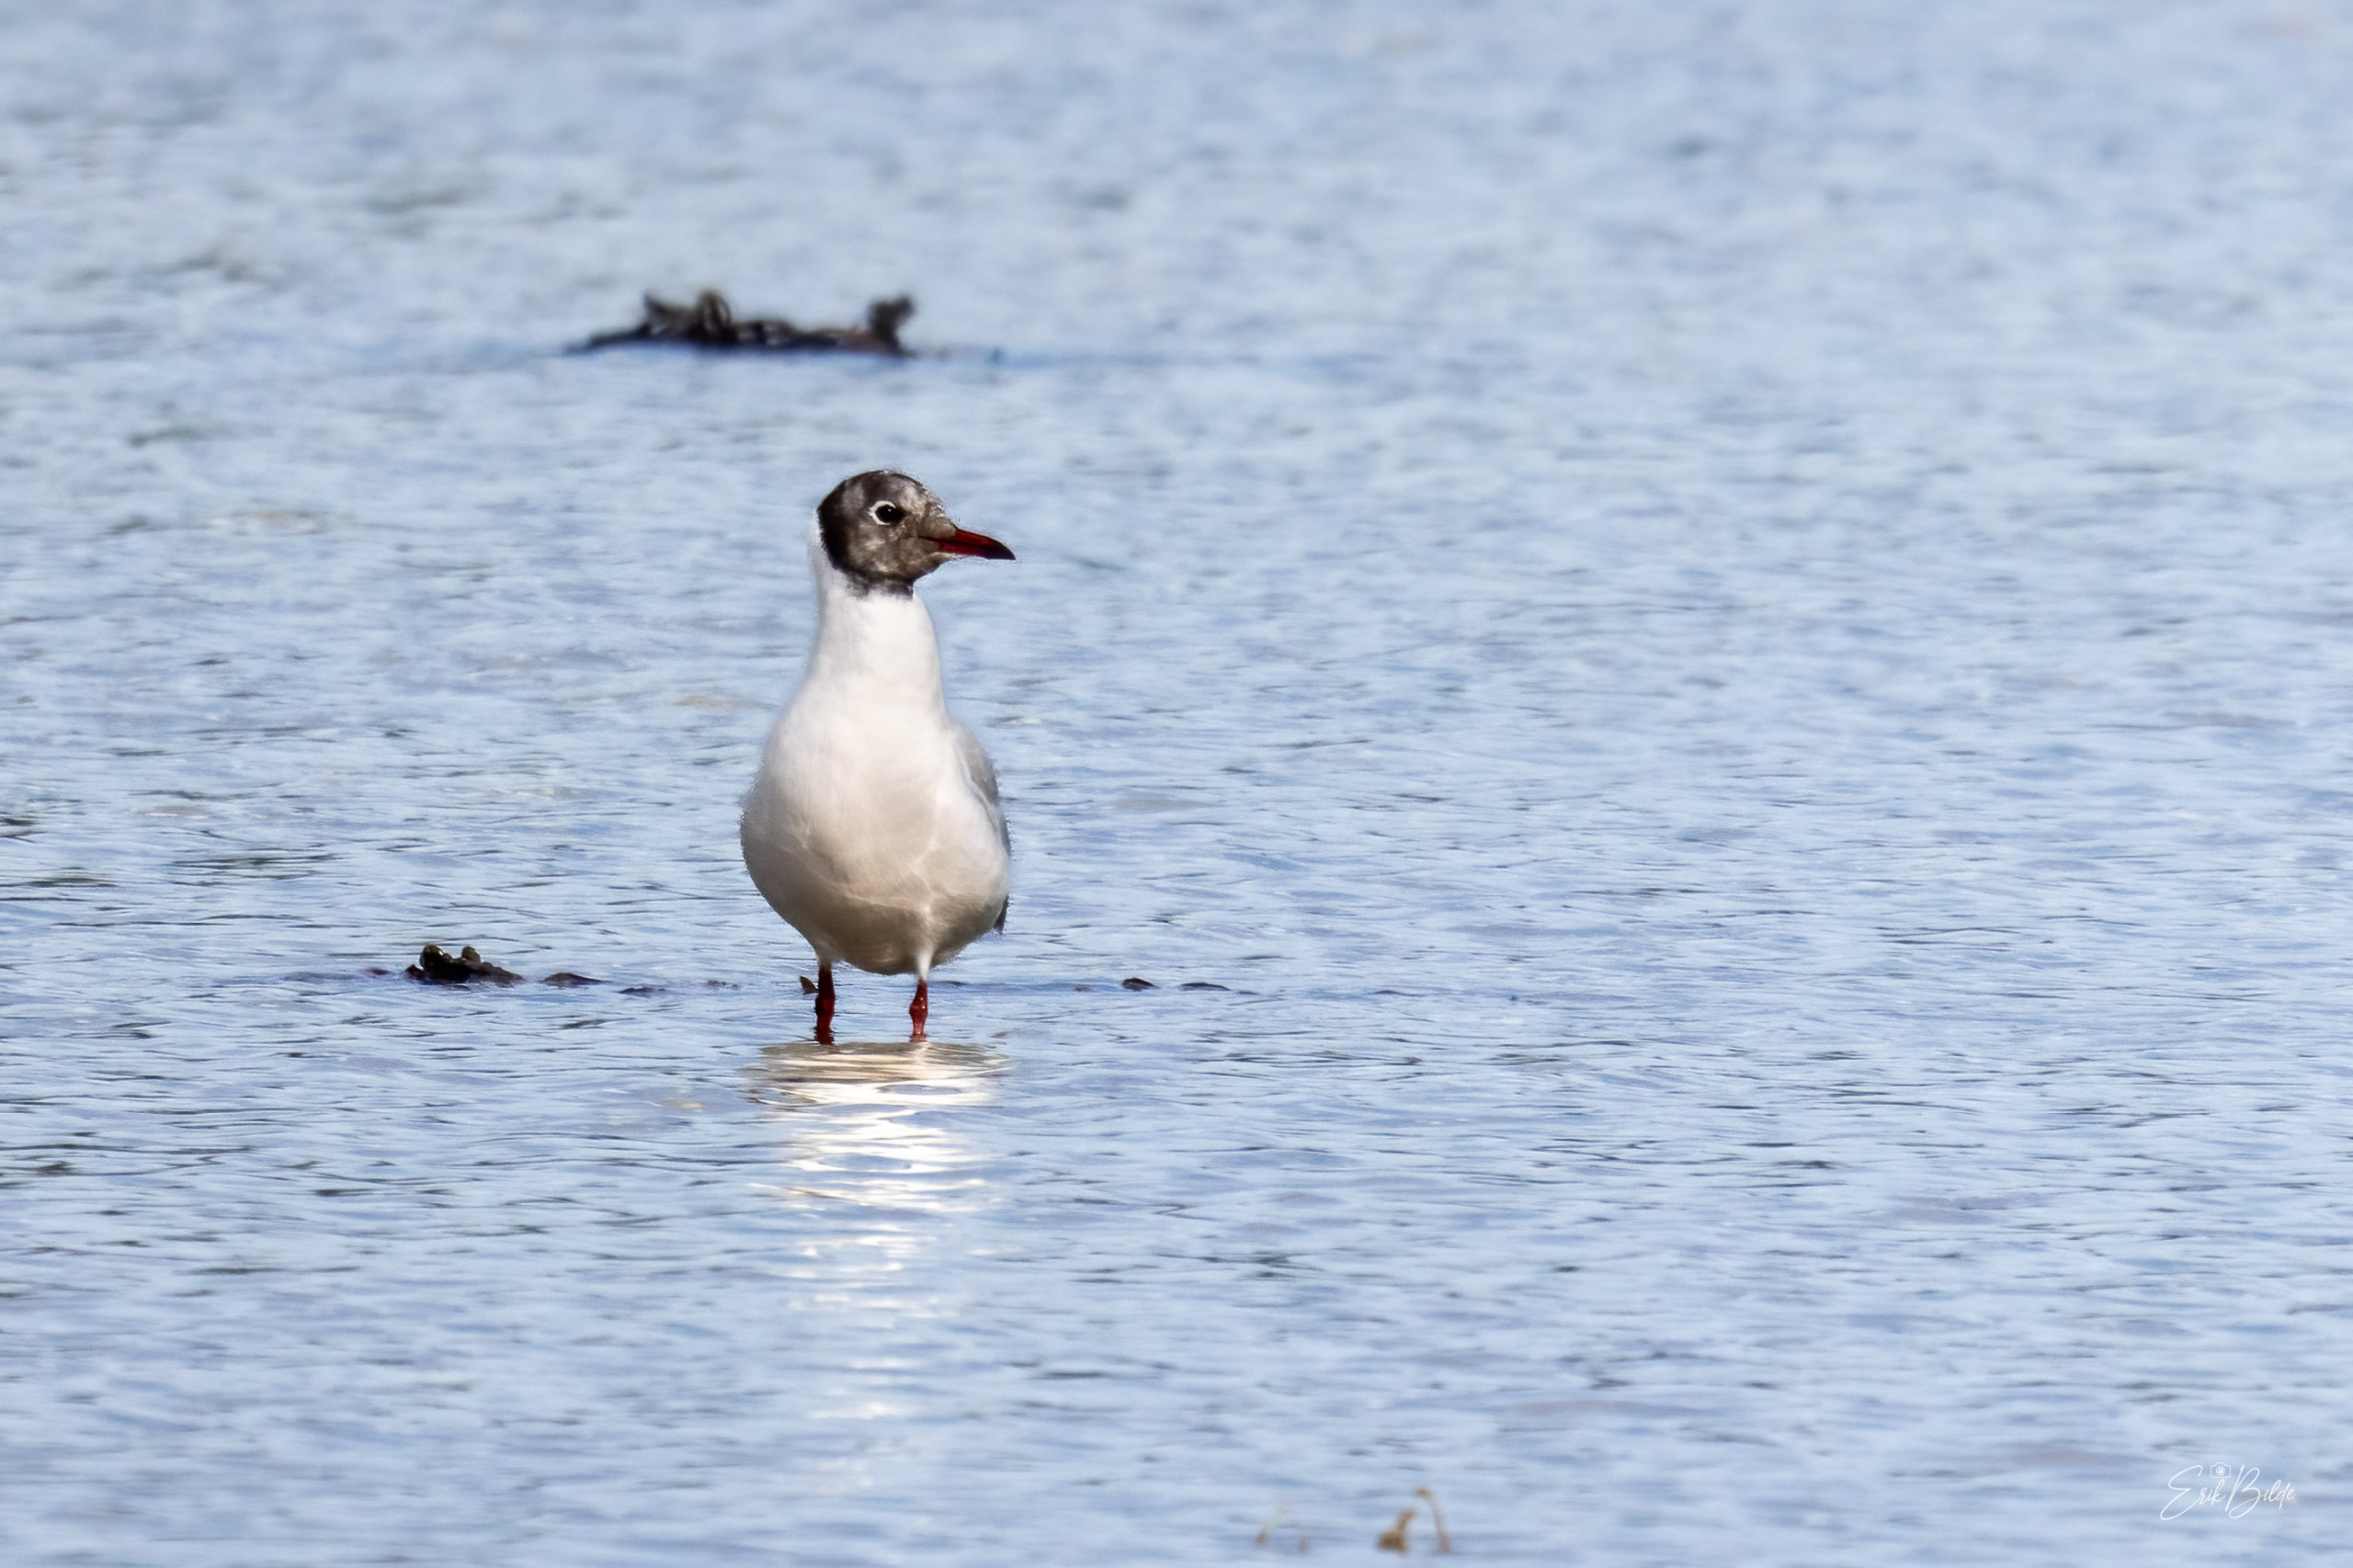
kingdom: Animalia
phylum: Chordata
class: Aves
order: Charadriiformes
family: Laridae
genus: Chroicocephalus
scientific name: Chroicocephalus ridibundus
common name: Hættemåge
